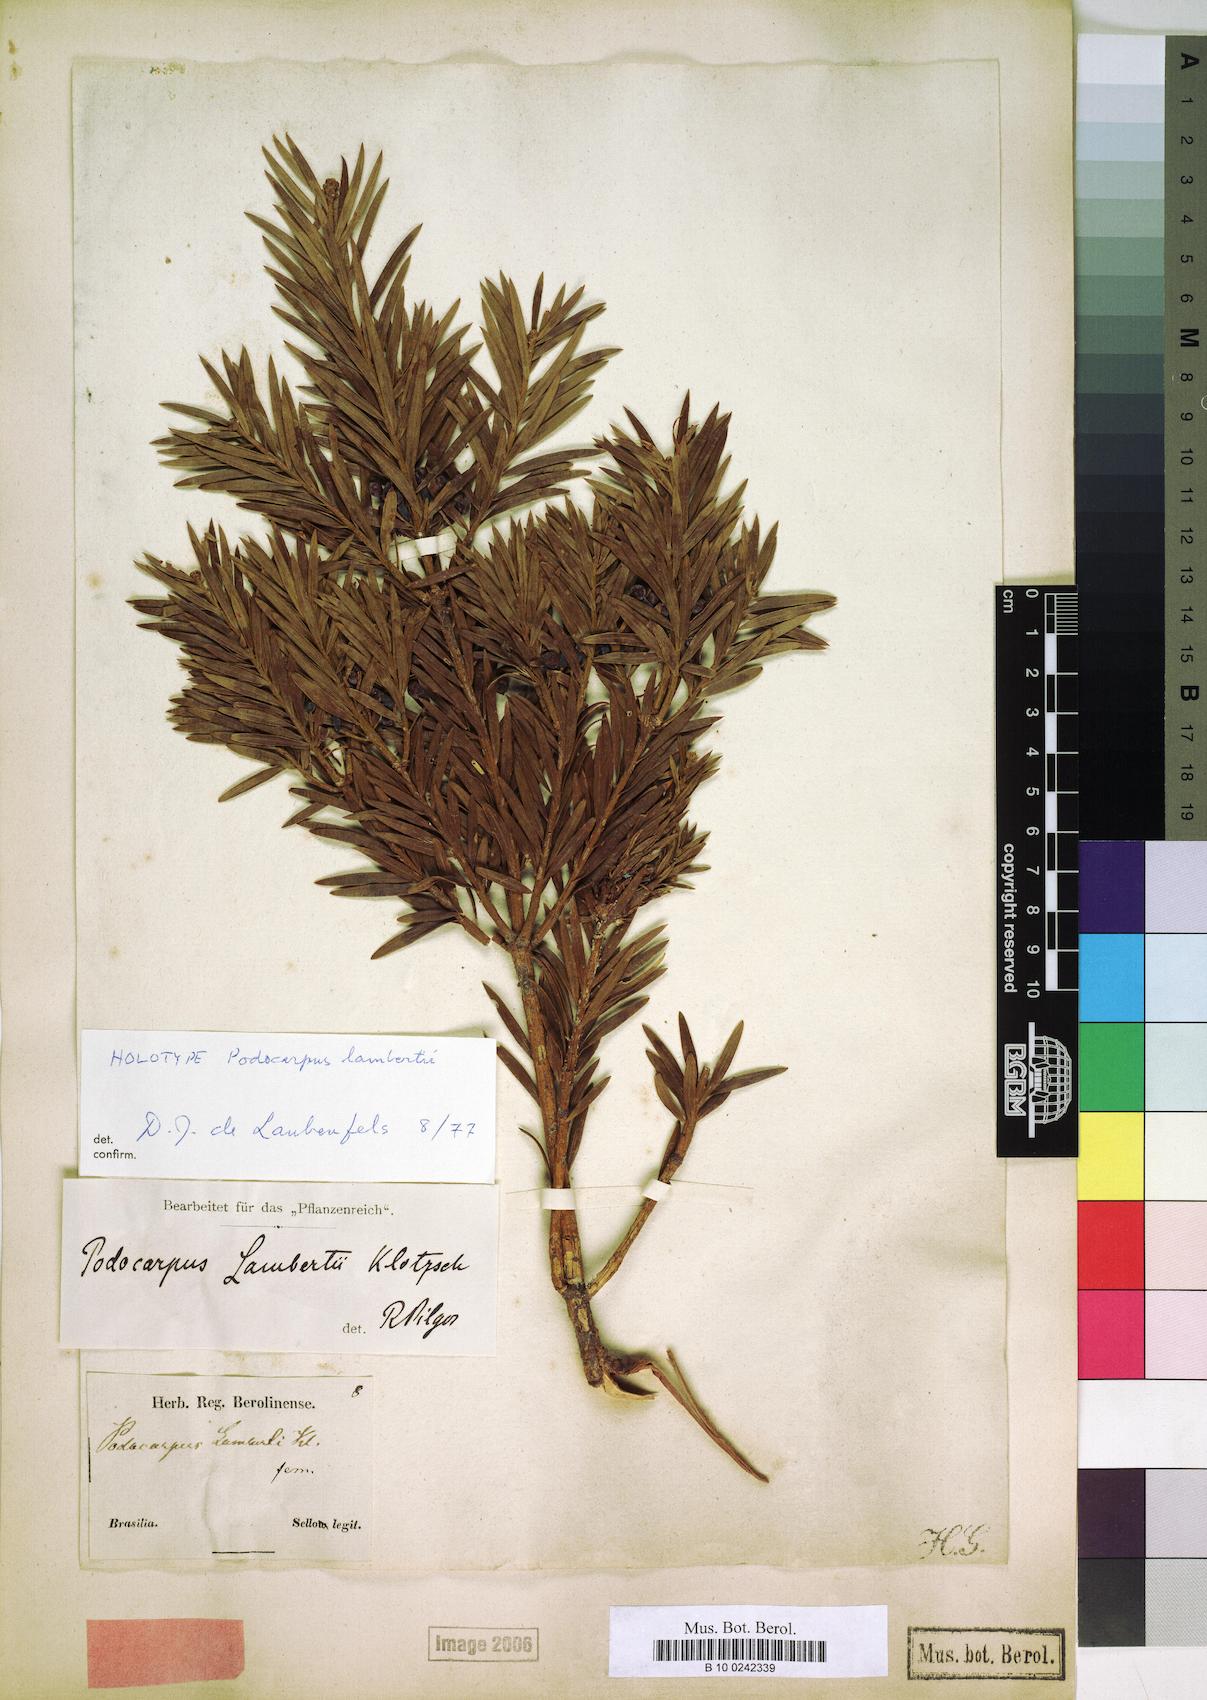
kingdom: Plantae
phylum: Tracheophyta
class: Pinopsida
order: Pinales
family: Podocarpaceae
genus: Podocarpus
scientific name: Podocarpus lambertii
